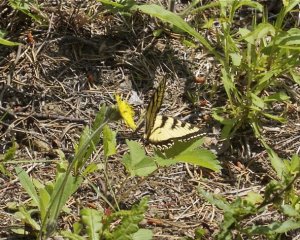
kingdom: Animalia
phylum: Arthropoda
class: Insecta
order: Lepidoptera
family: Papilionidae
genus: Pterourus
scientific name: Pterourus canadensis
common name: Canadian Tiger Swallowtail
